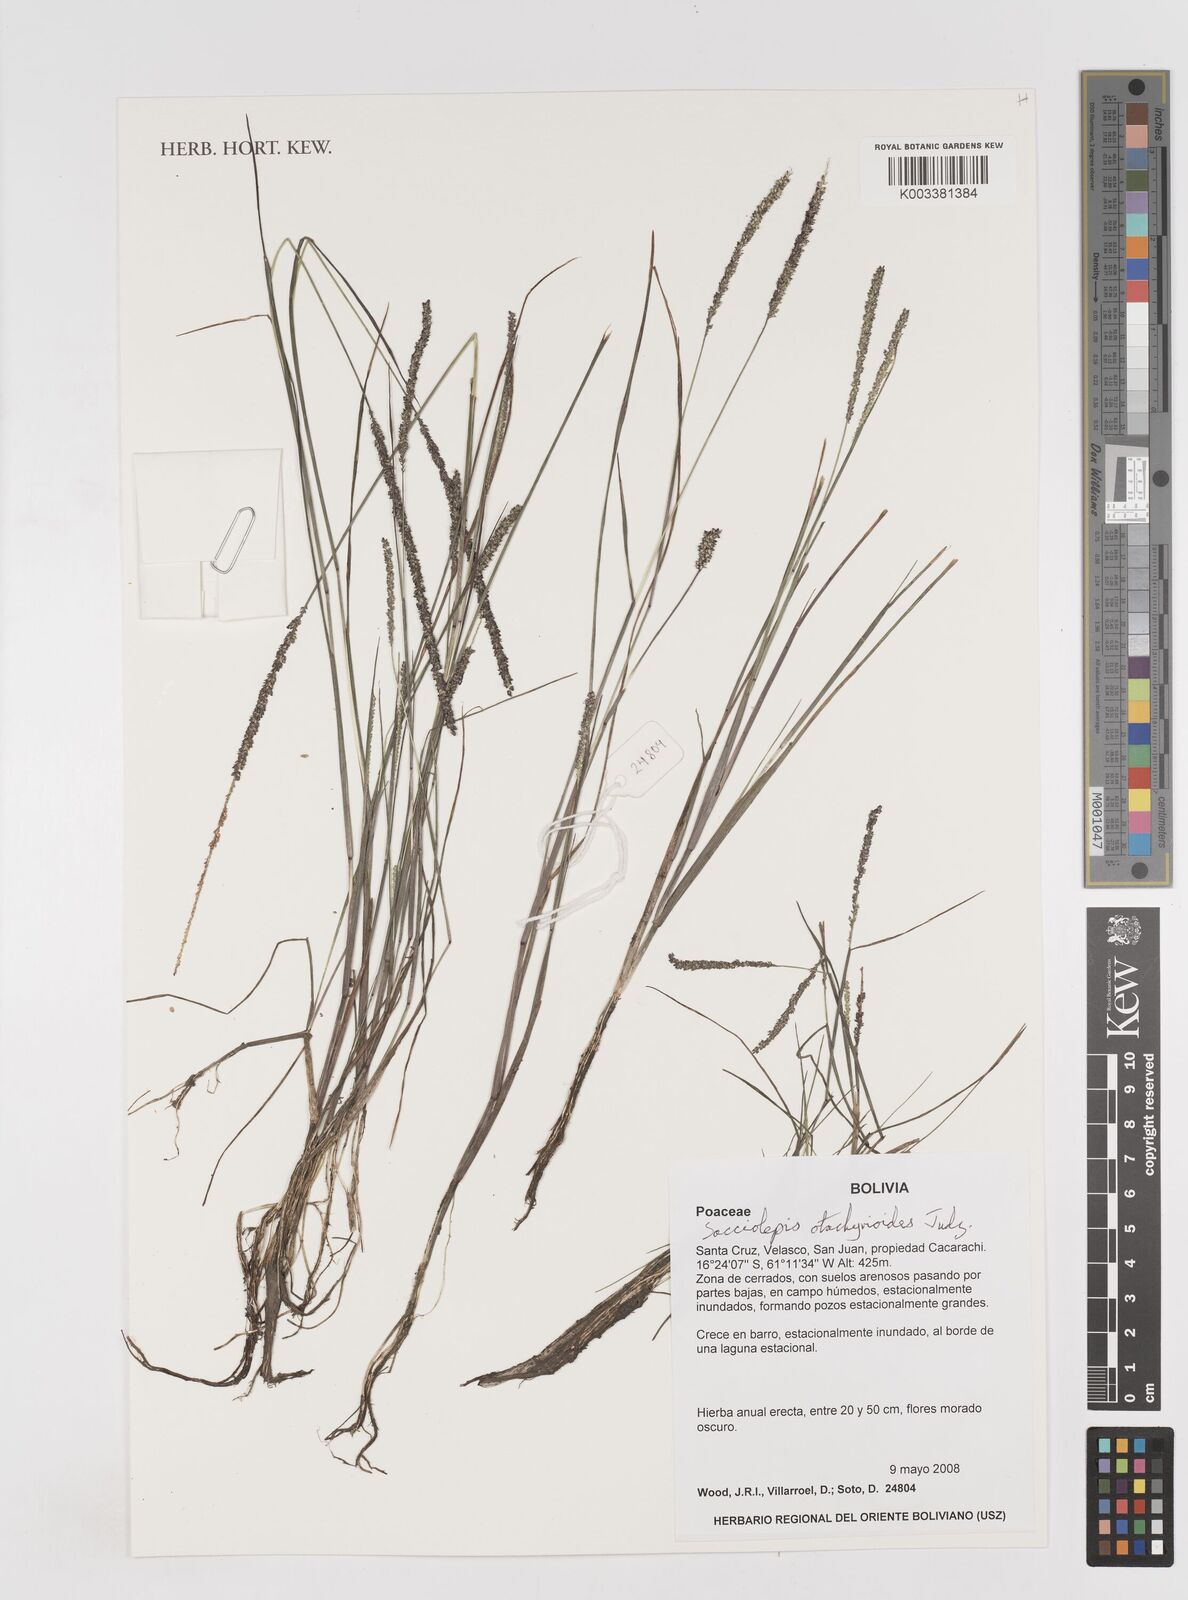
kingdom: Plantae
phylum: Tracheophyta
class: Liliopsida
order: Poales
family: Poaceae
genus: Sacciolepis
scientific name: Sacciolepis otachyrioides
